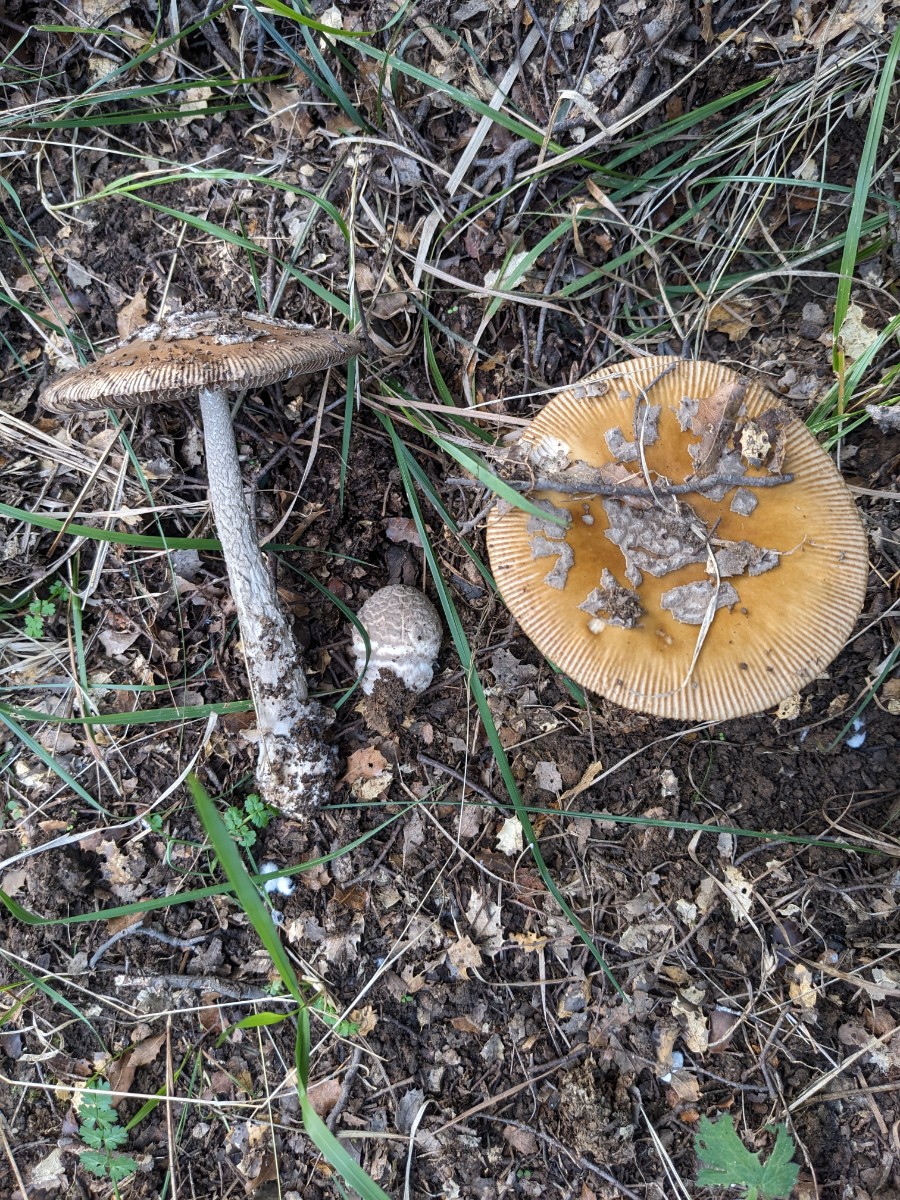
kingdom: Fungi
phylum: Basidiomycota
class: Agaricomycetes
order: Agaricales
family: Amanitaceae
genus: Amanita
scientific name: Amanita ceciliae
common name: stor kam-fluesvamp
